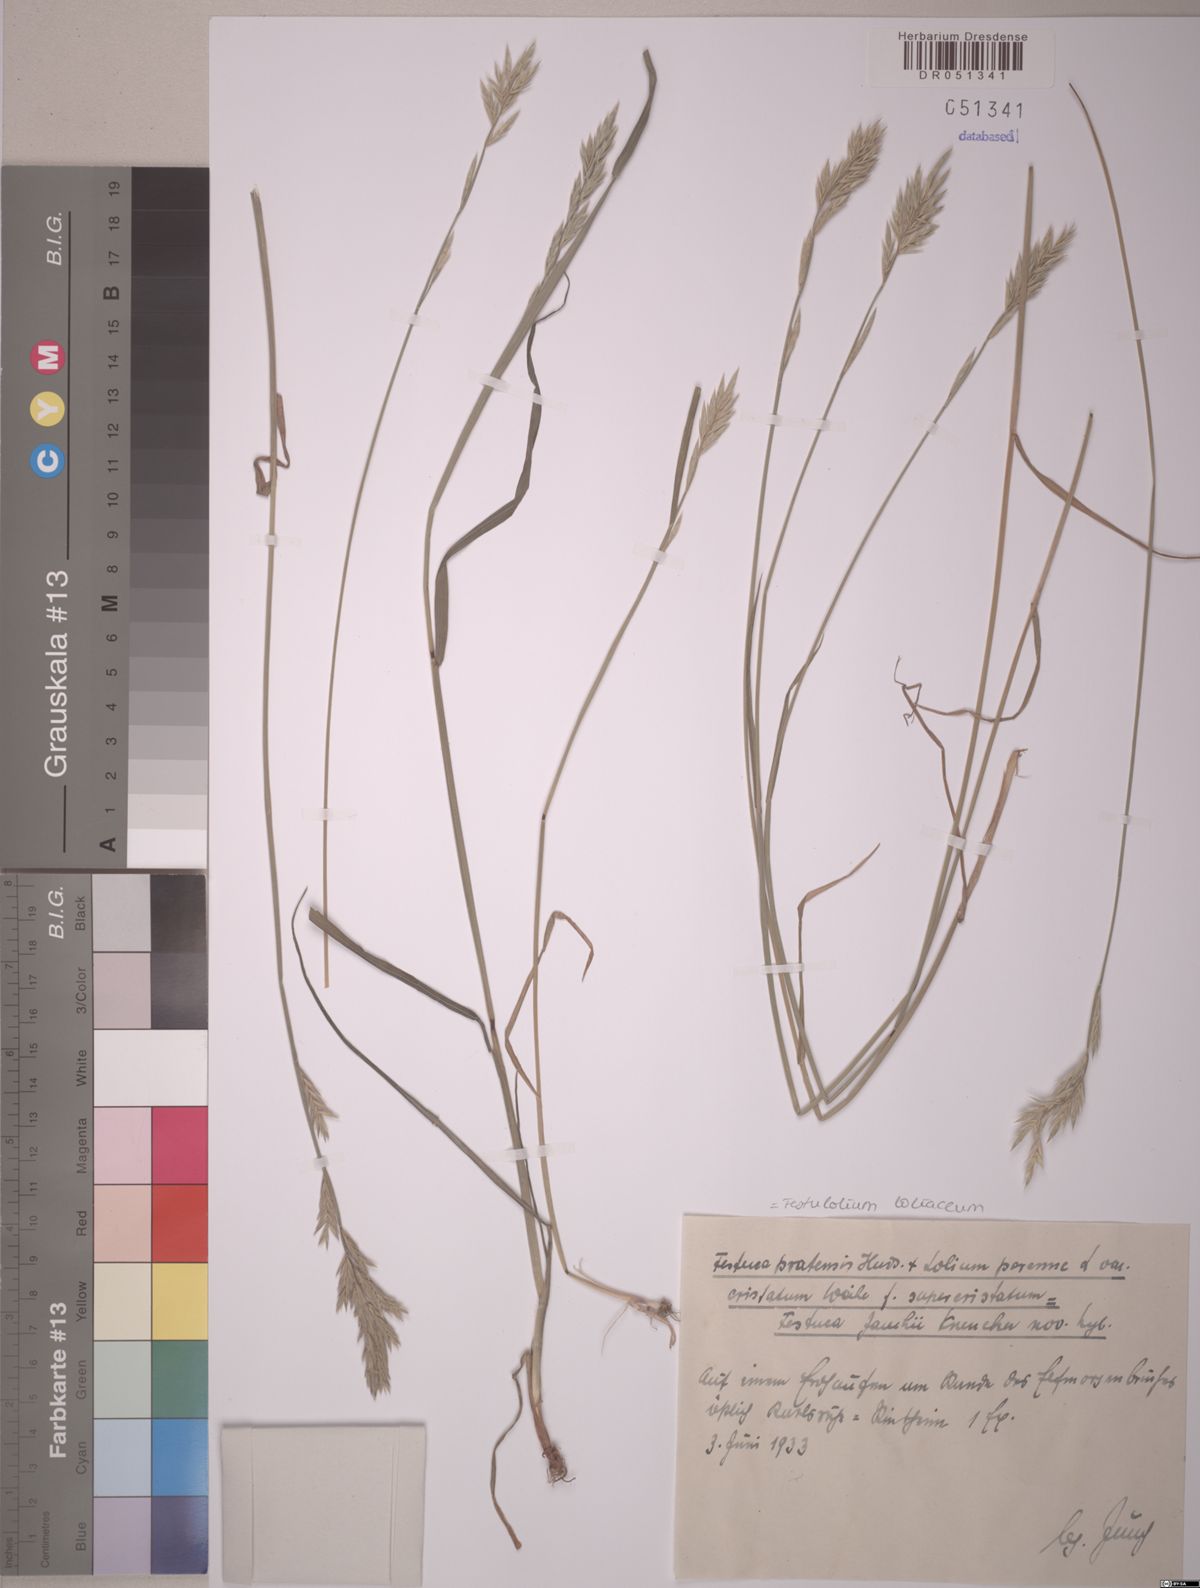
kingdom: Plantae
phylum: Tracheophyta
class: Liliopsida
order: Poales
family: Poaceae
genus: Lolium
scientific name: Lolium elongatum
